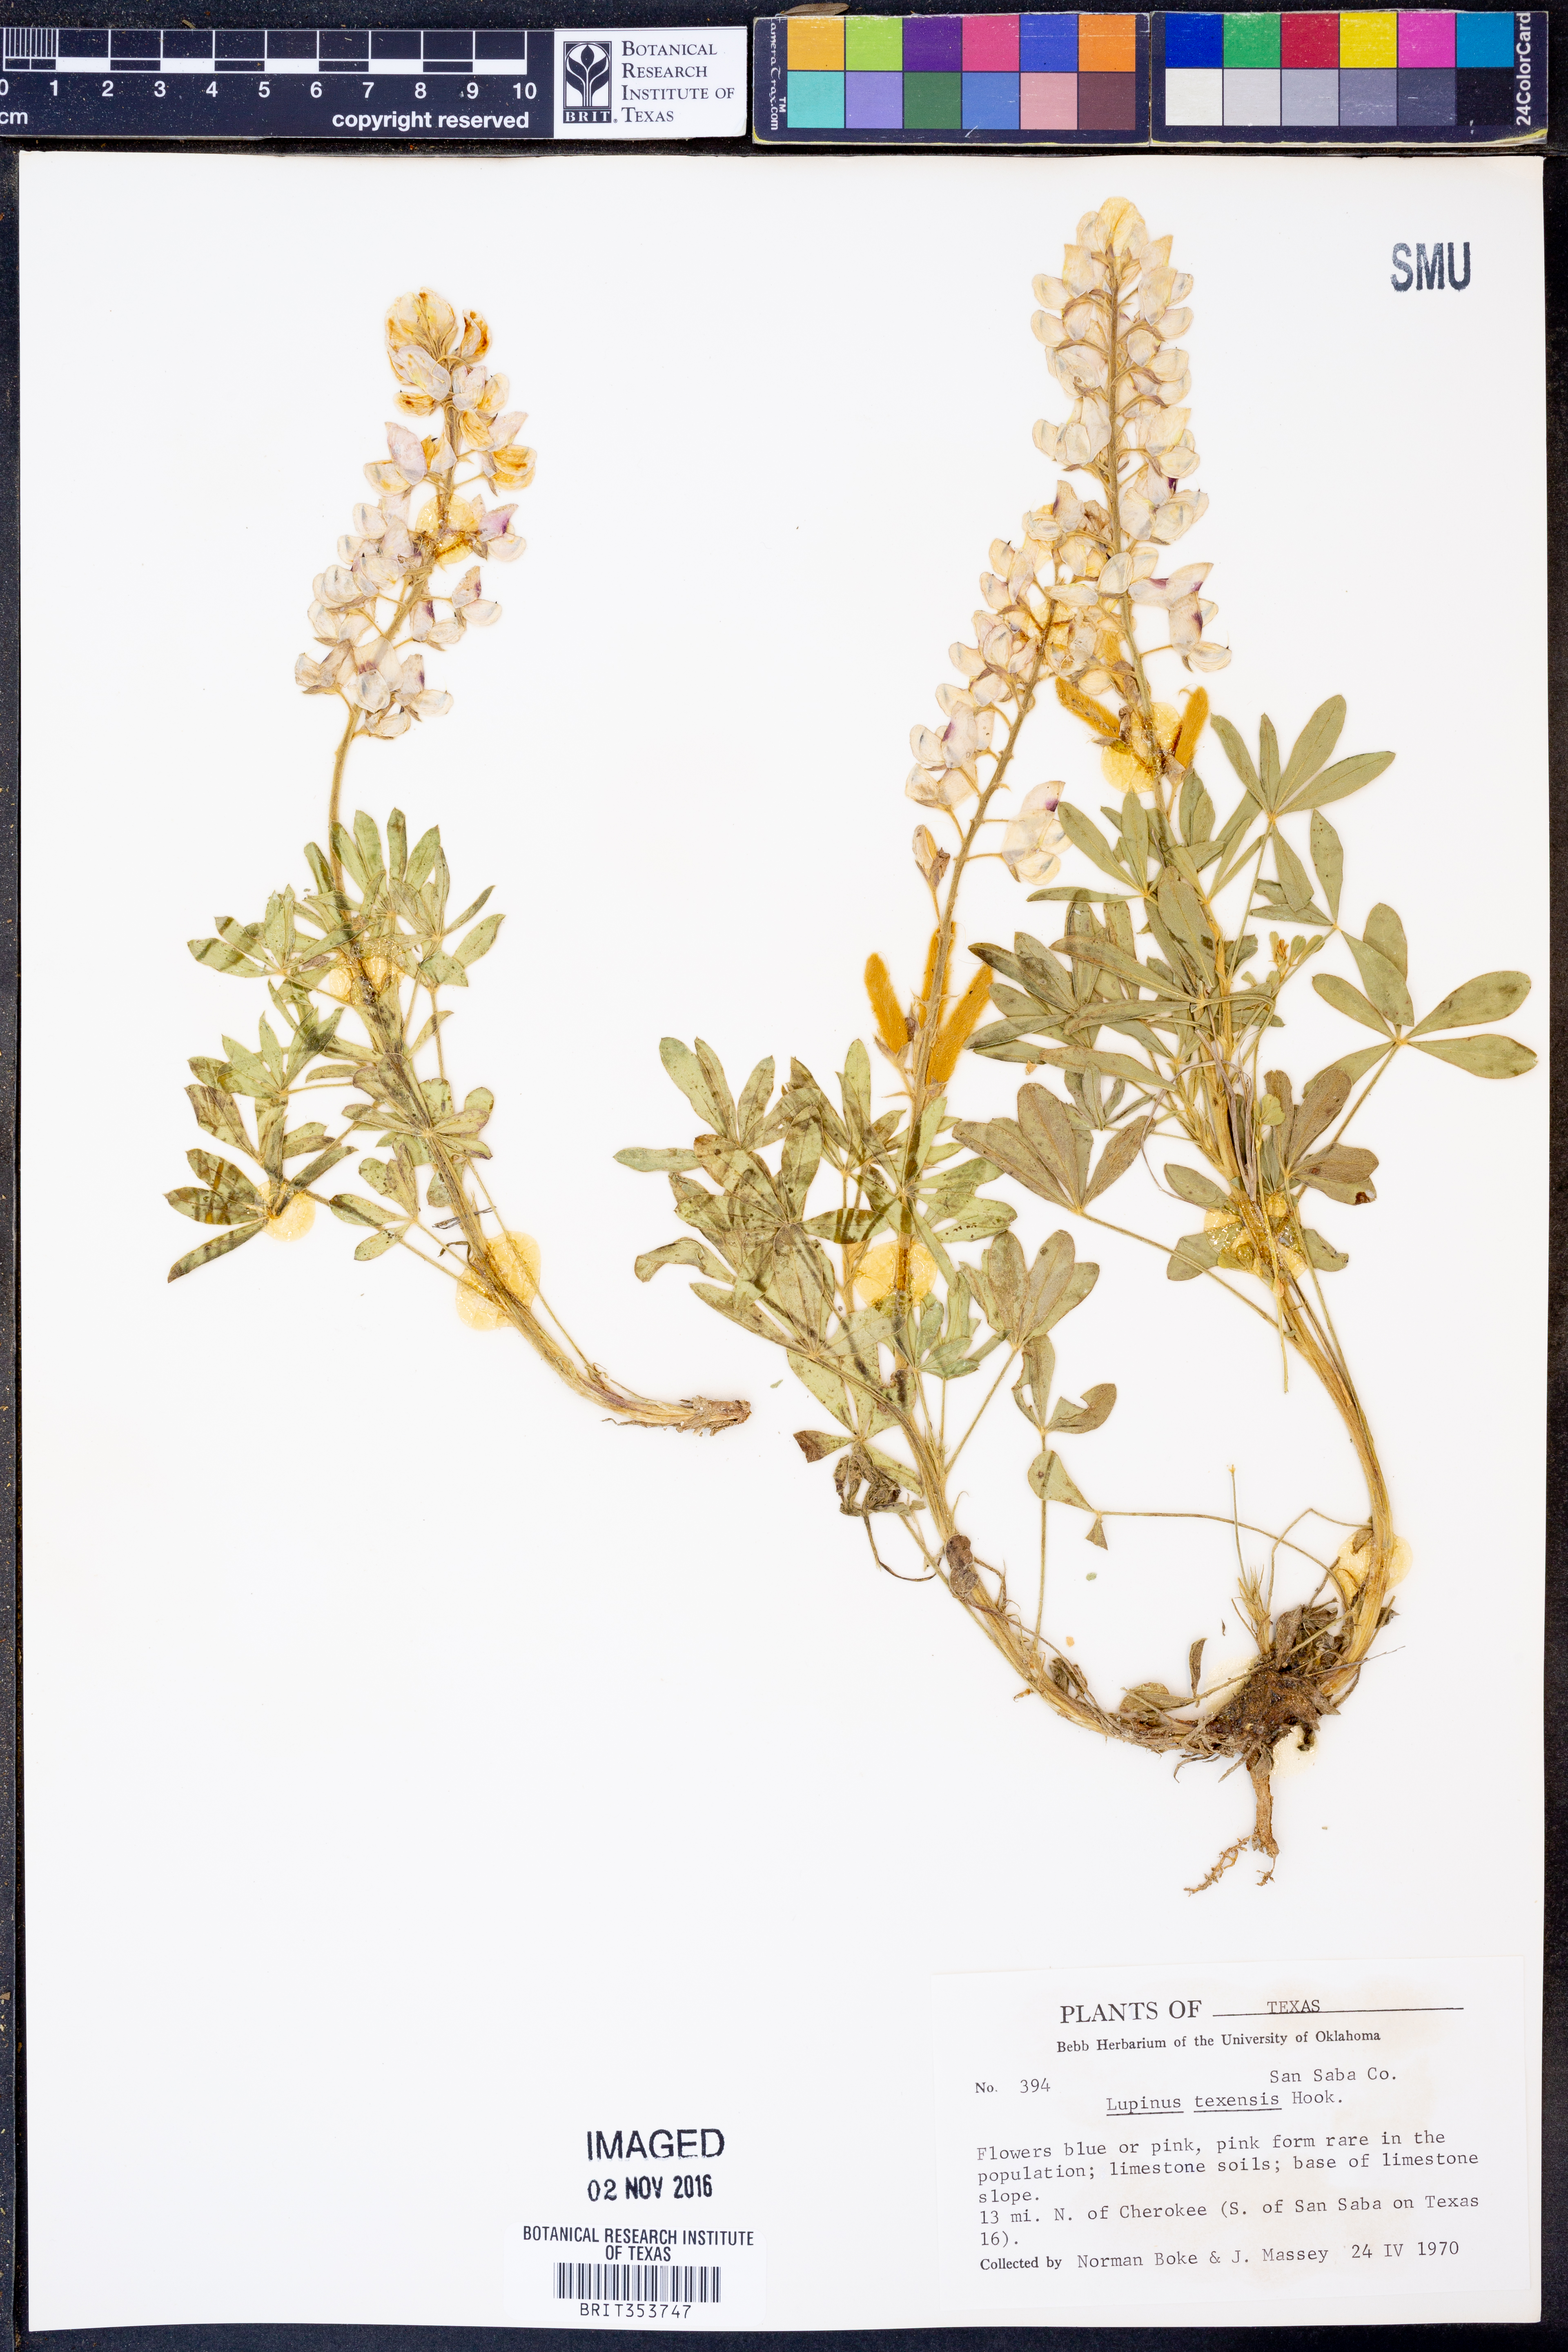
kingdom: Plantae
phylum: Tracheophyta
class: Magnoliopsida
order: Fabales
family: Fabaceae
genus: Lupinus
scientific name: Lupinus texensis
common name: Texas bluebonnet
